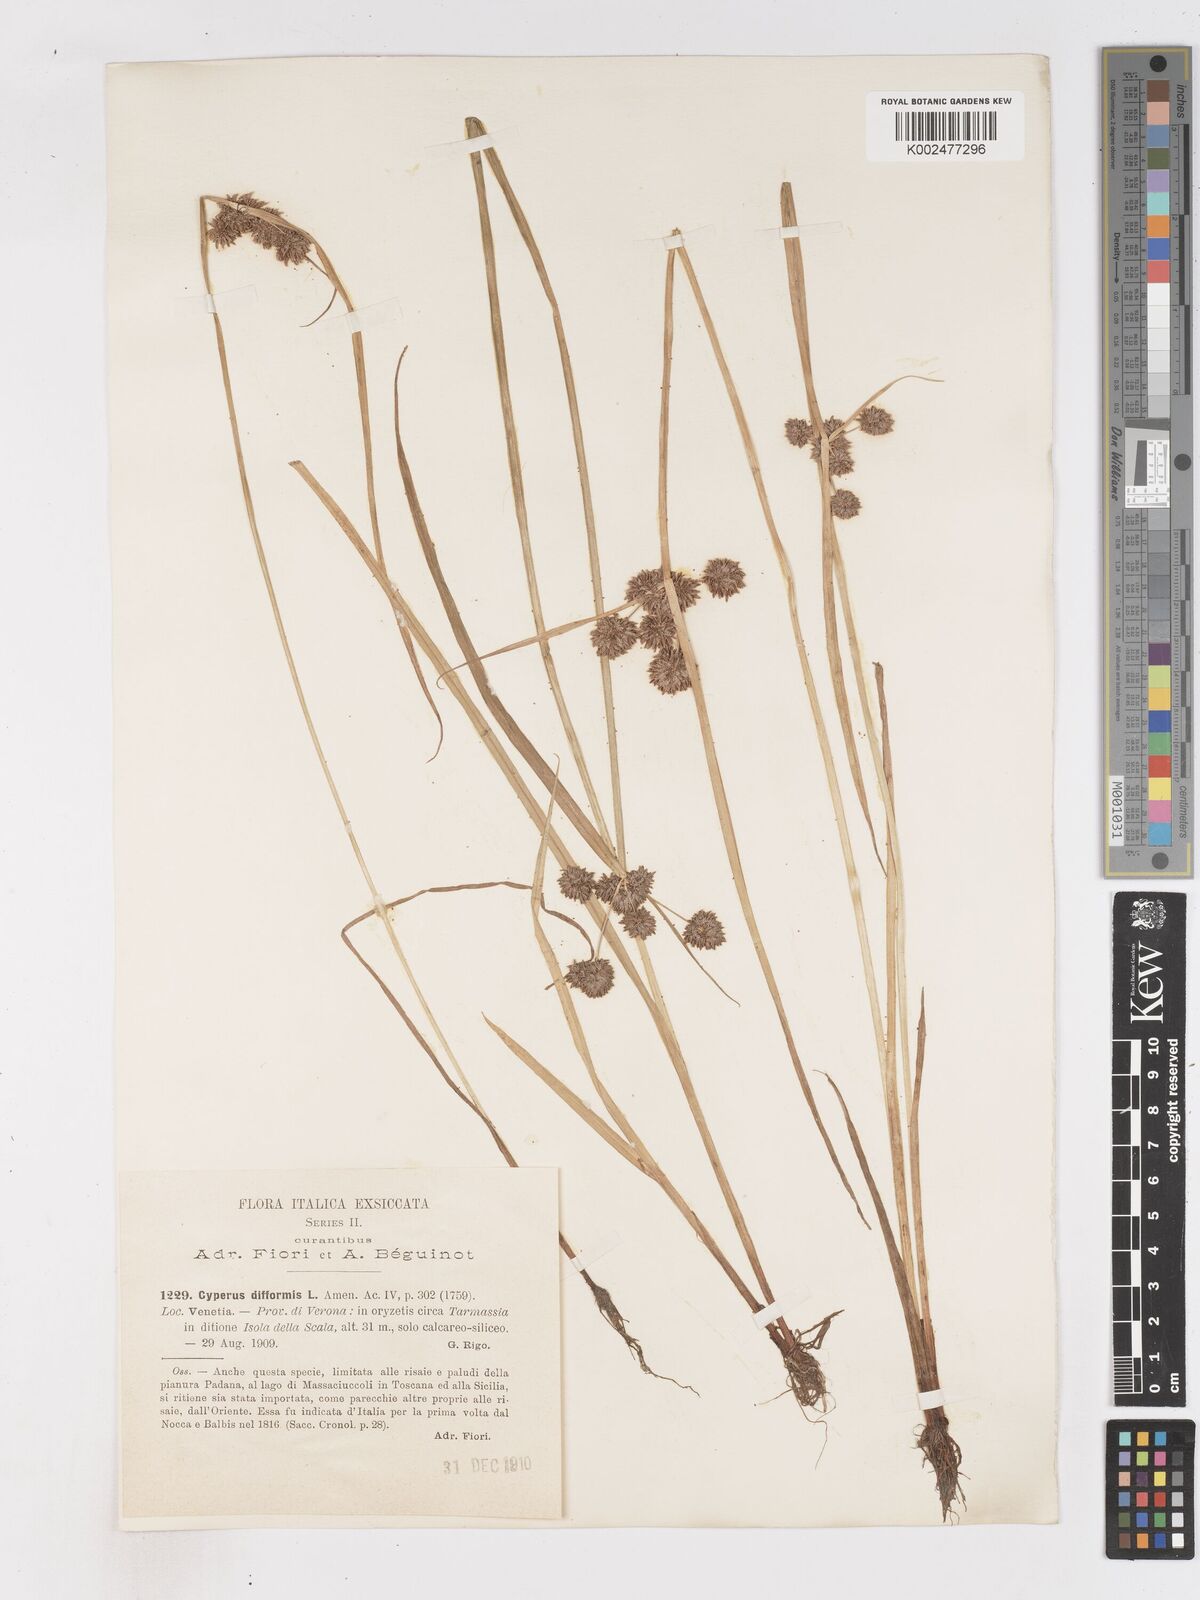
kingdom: Plantae
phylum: Tracheophyta
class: Liliopsida
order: Poales
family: Cyperaceae
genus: Cyperus
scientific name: Cyperus difformis
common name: Variable flatsedge
